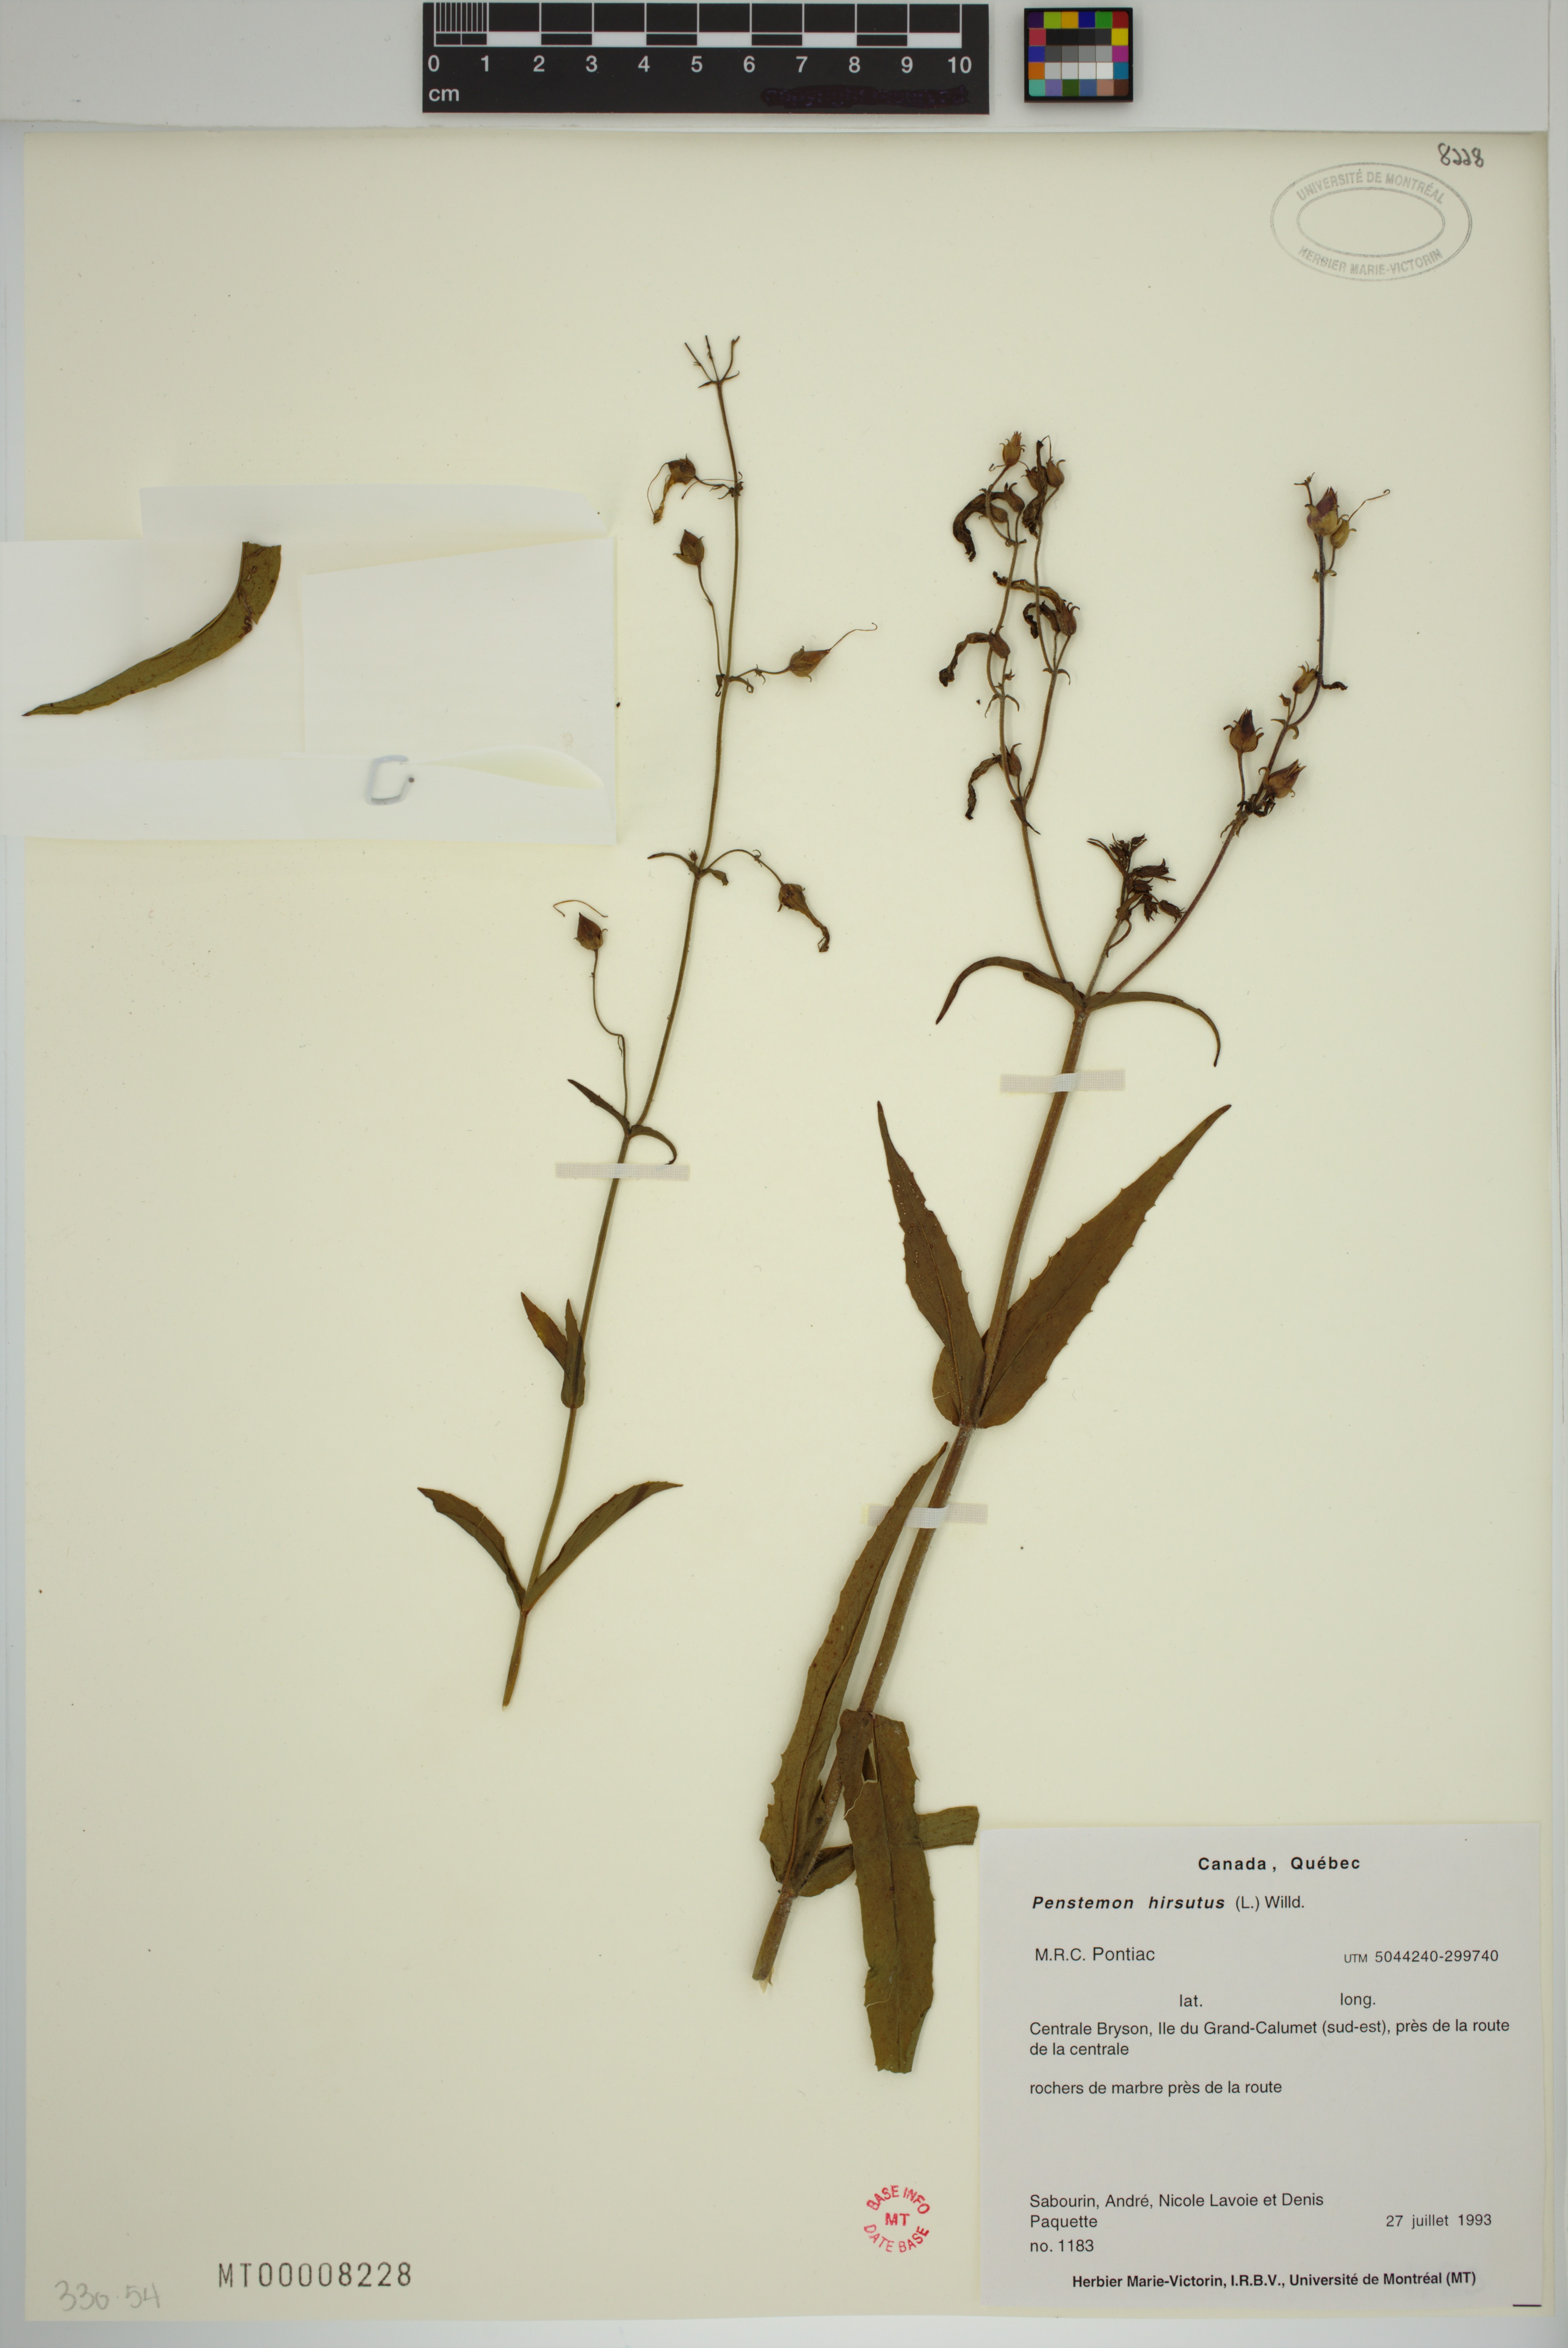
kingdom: Plantae
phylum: Tracheophyta
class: Magnoliopsida
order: Lamiales
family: Plantaginaceae
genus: Penstemon
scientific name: Penstemon hirsutus
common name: Hairy beardtongue
